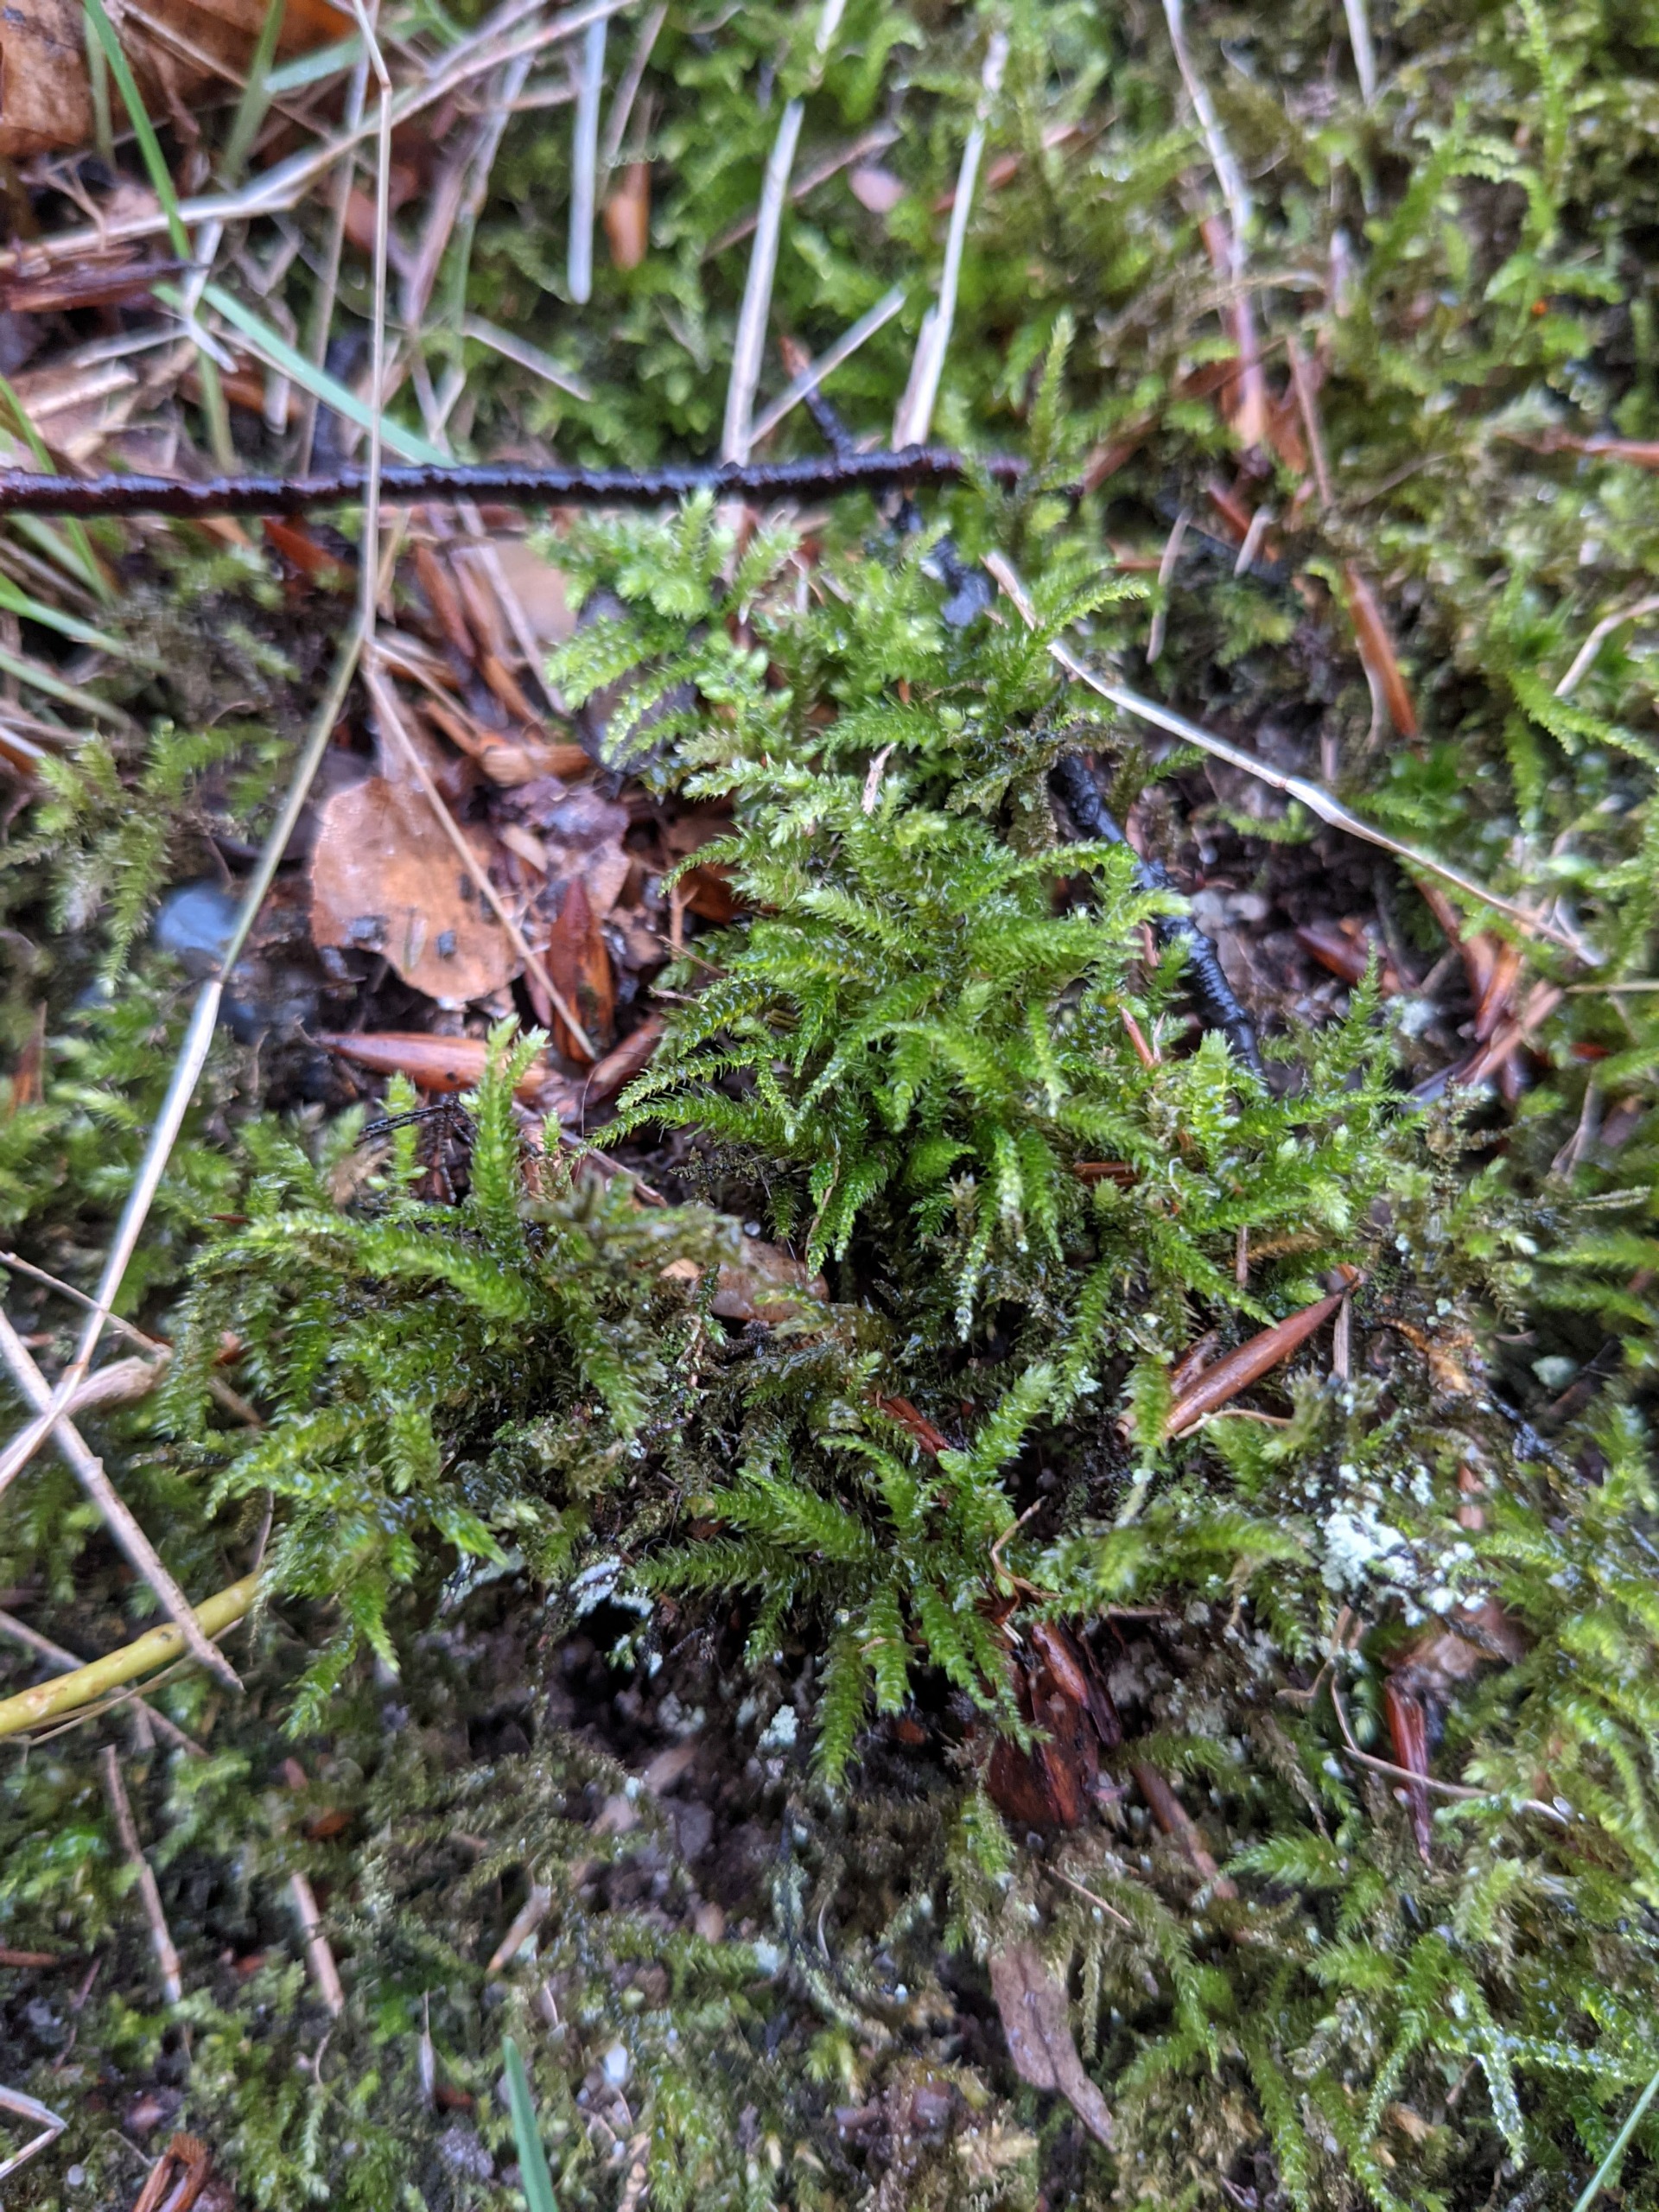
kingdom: Plantae
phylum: Bryophyta
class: Bryopsida
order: Hypnales
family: Brachytheciaceae
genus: Eurhynchium
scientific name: Eurhynchium striatum
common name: Stribet næbmos
